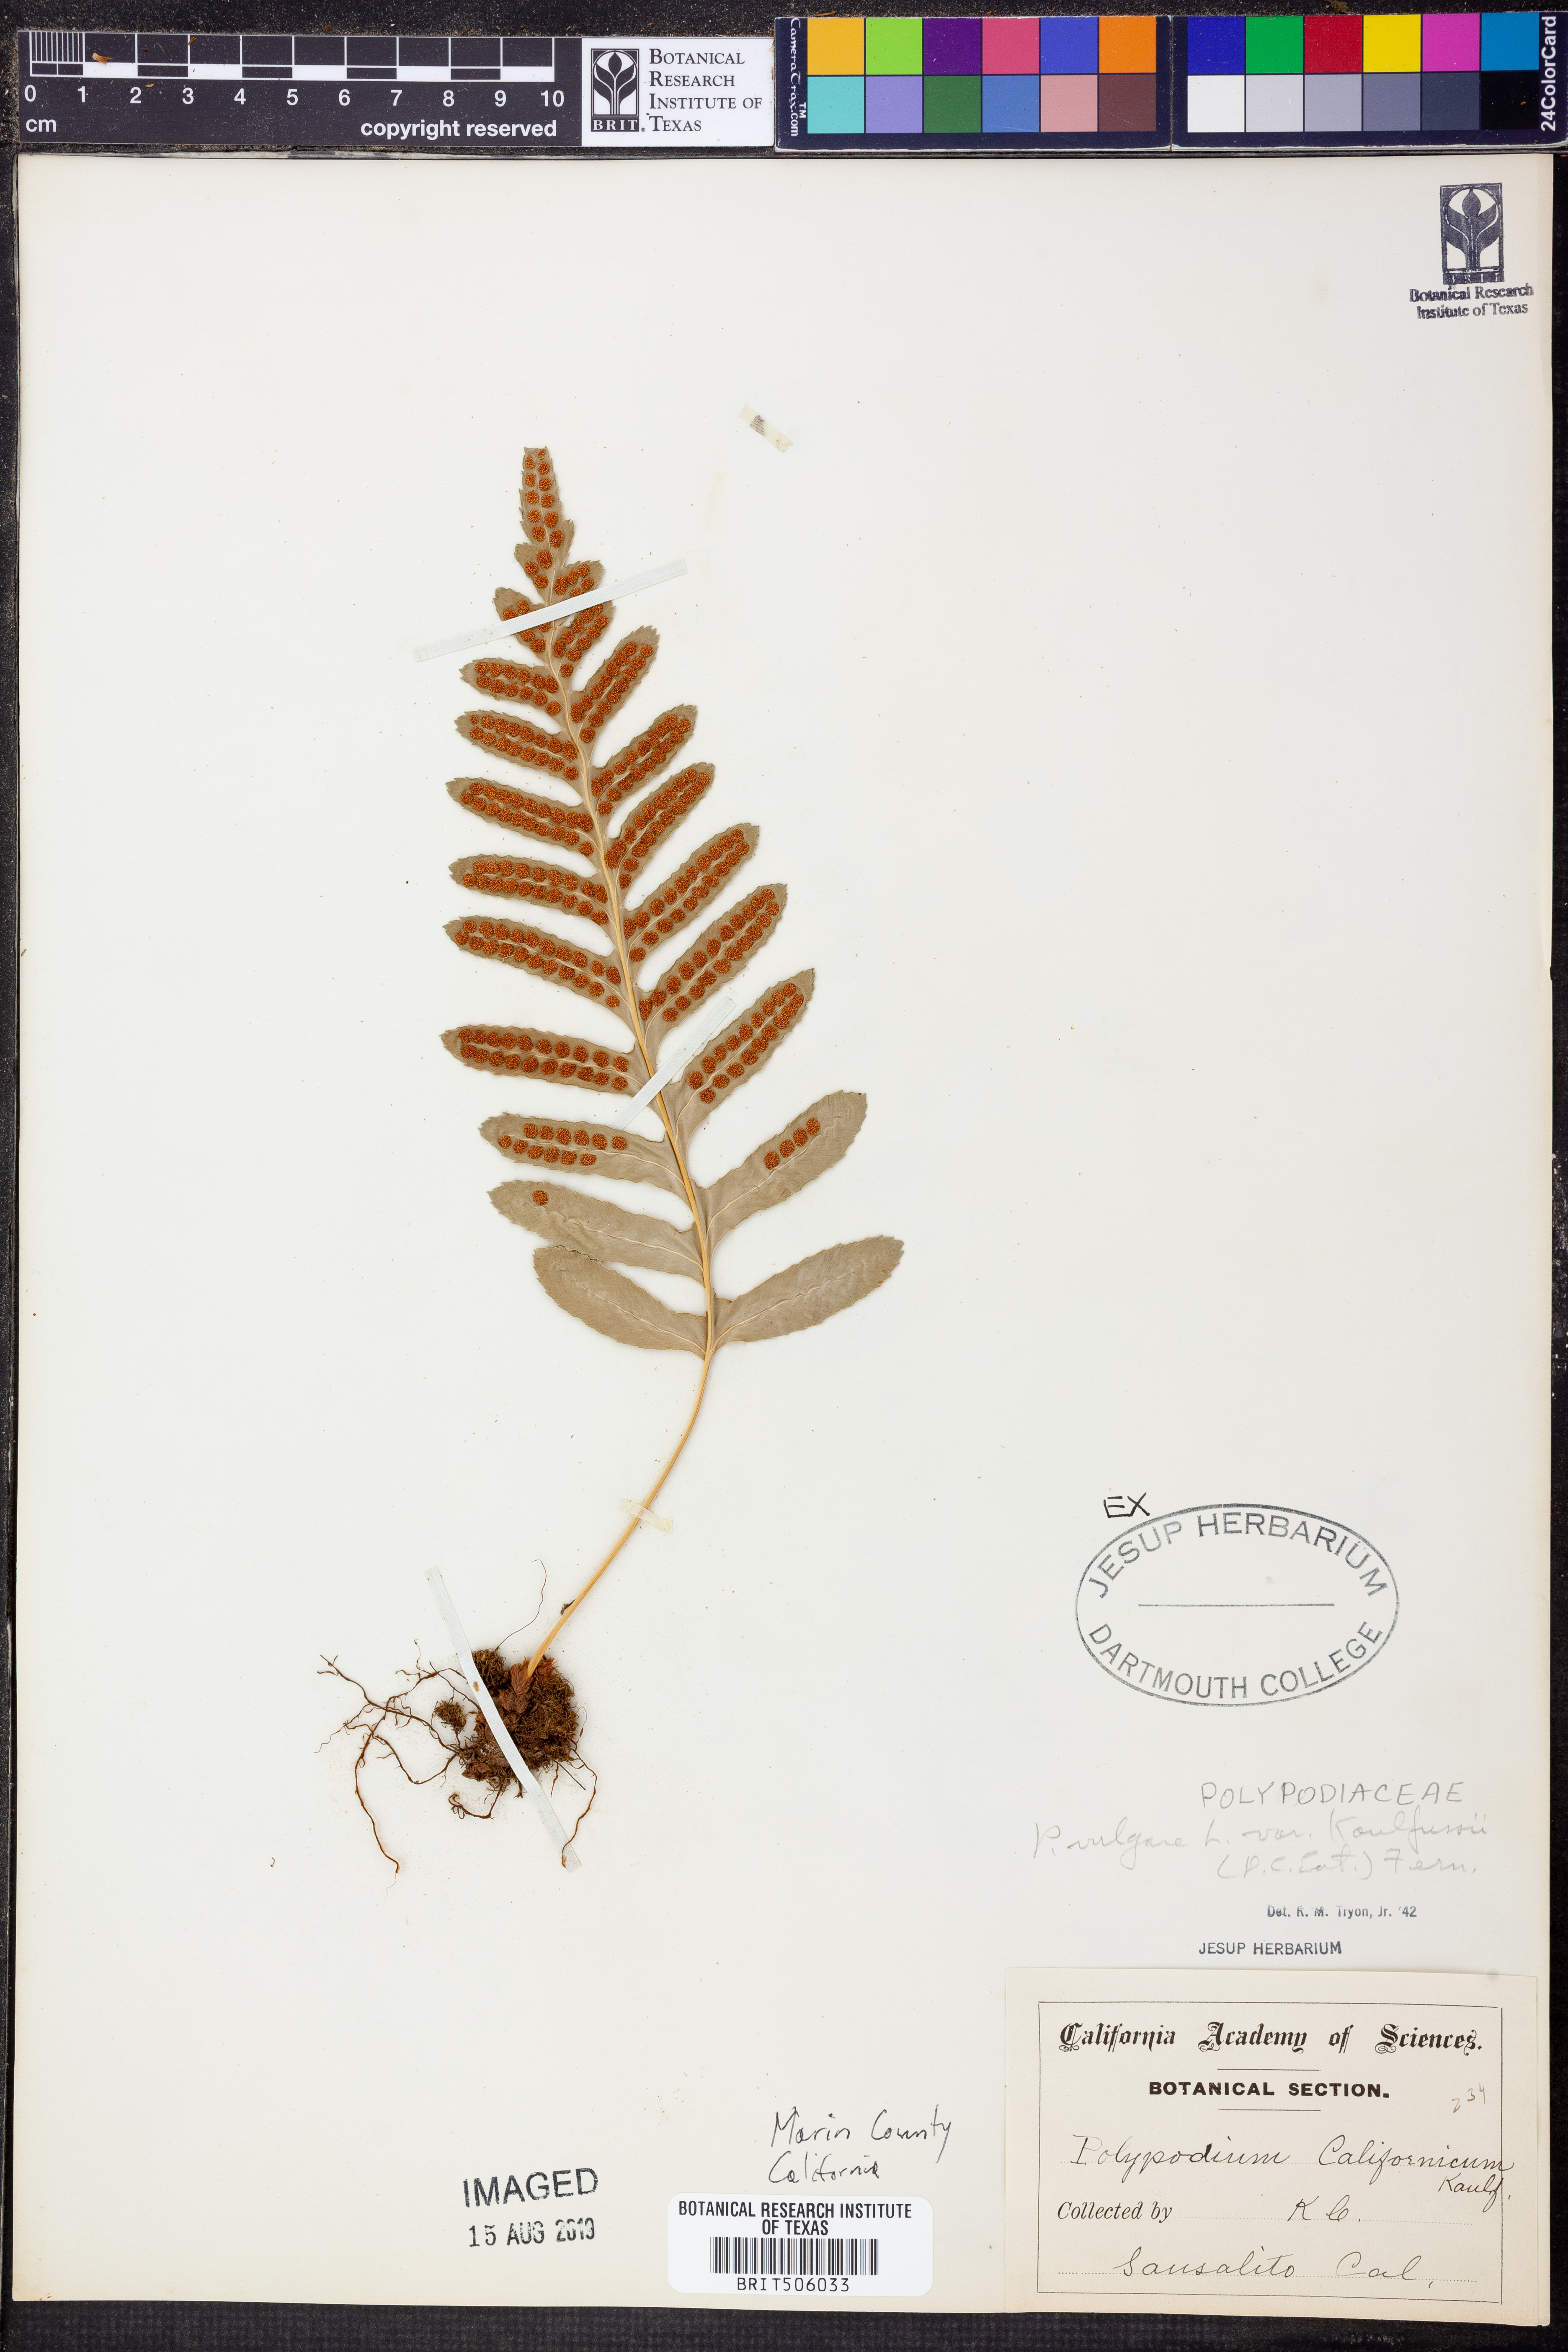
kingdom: Plantae
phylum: Tracheophyta
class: Polypodiopsida
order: Polypodiales
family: Polypodiaceae
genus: Polypodium
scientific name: Polypodium californicum
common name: California polypody
